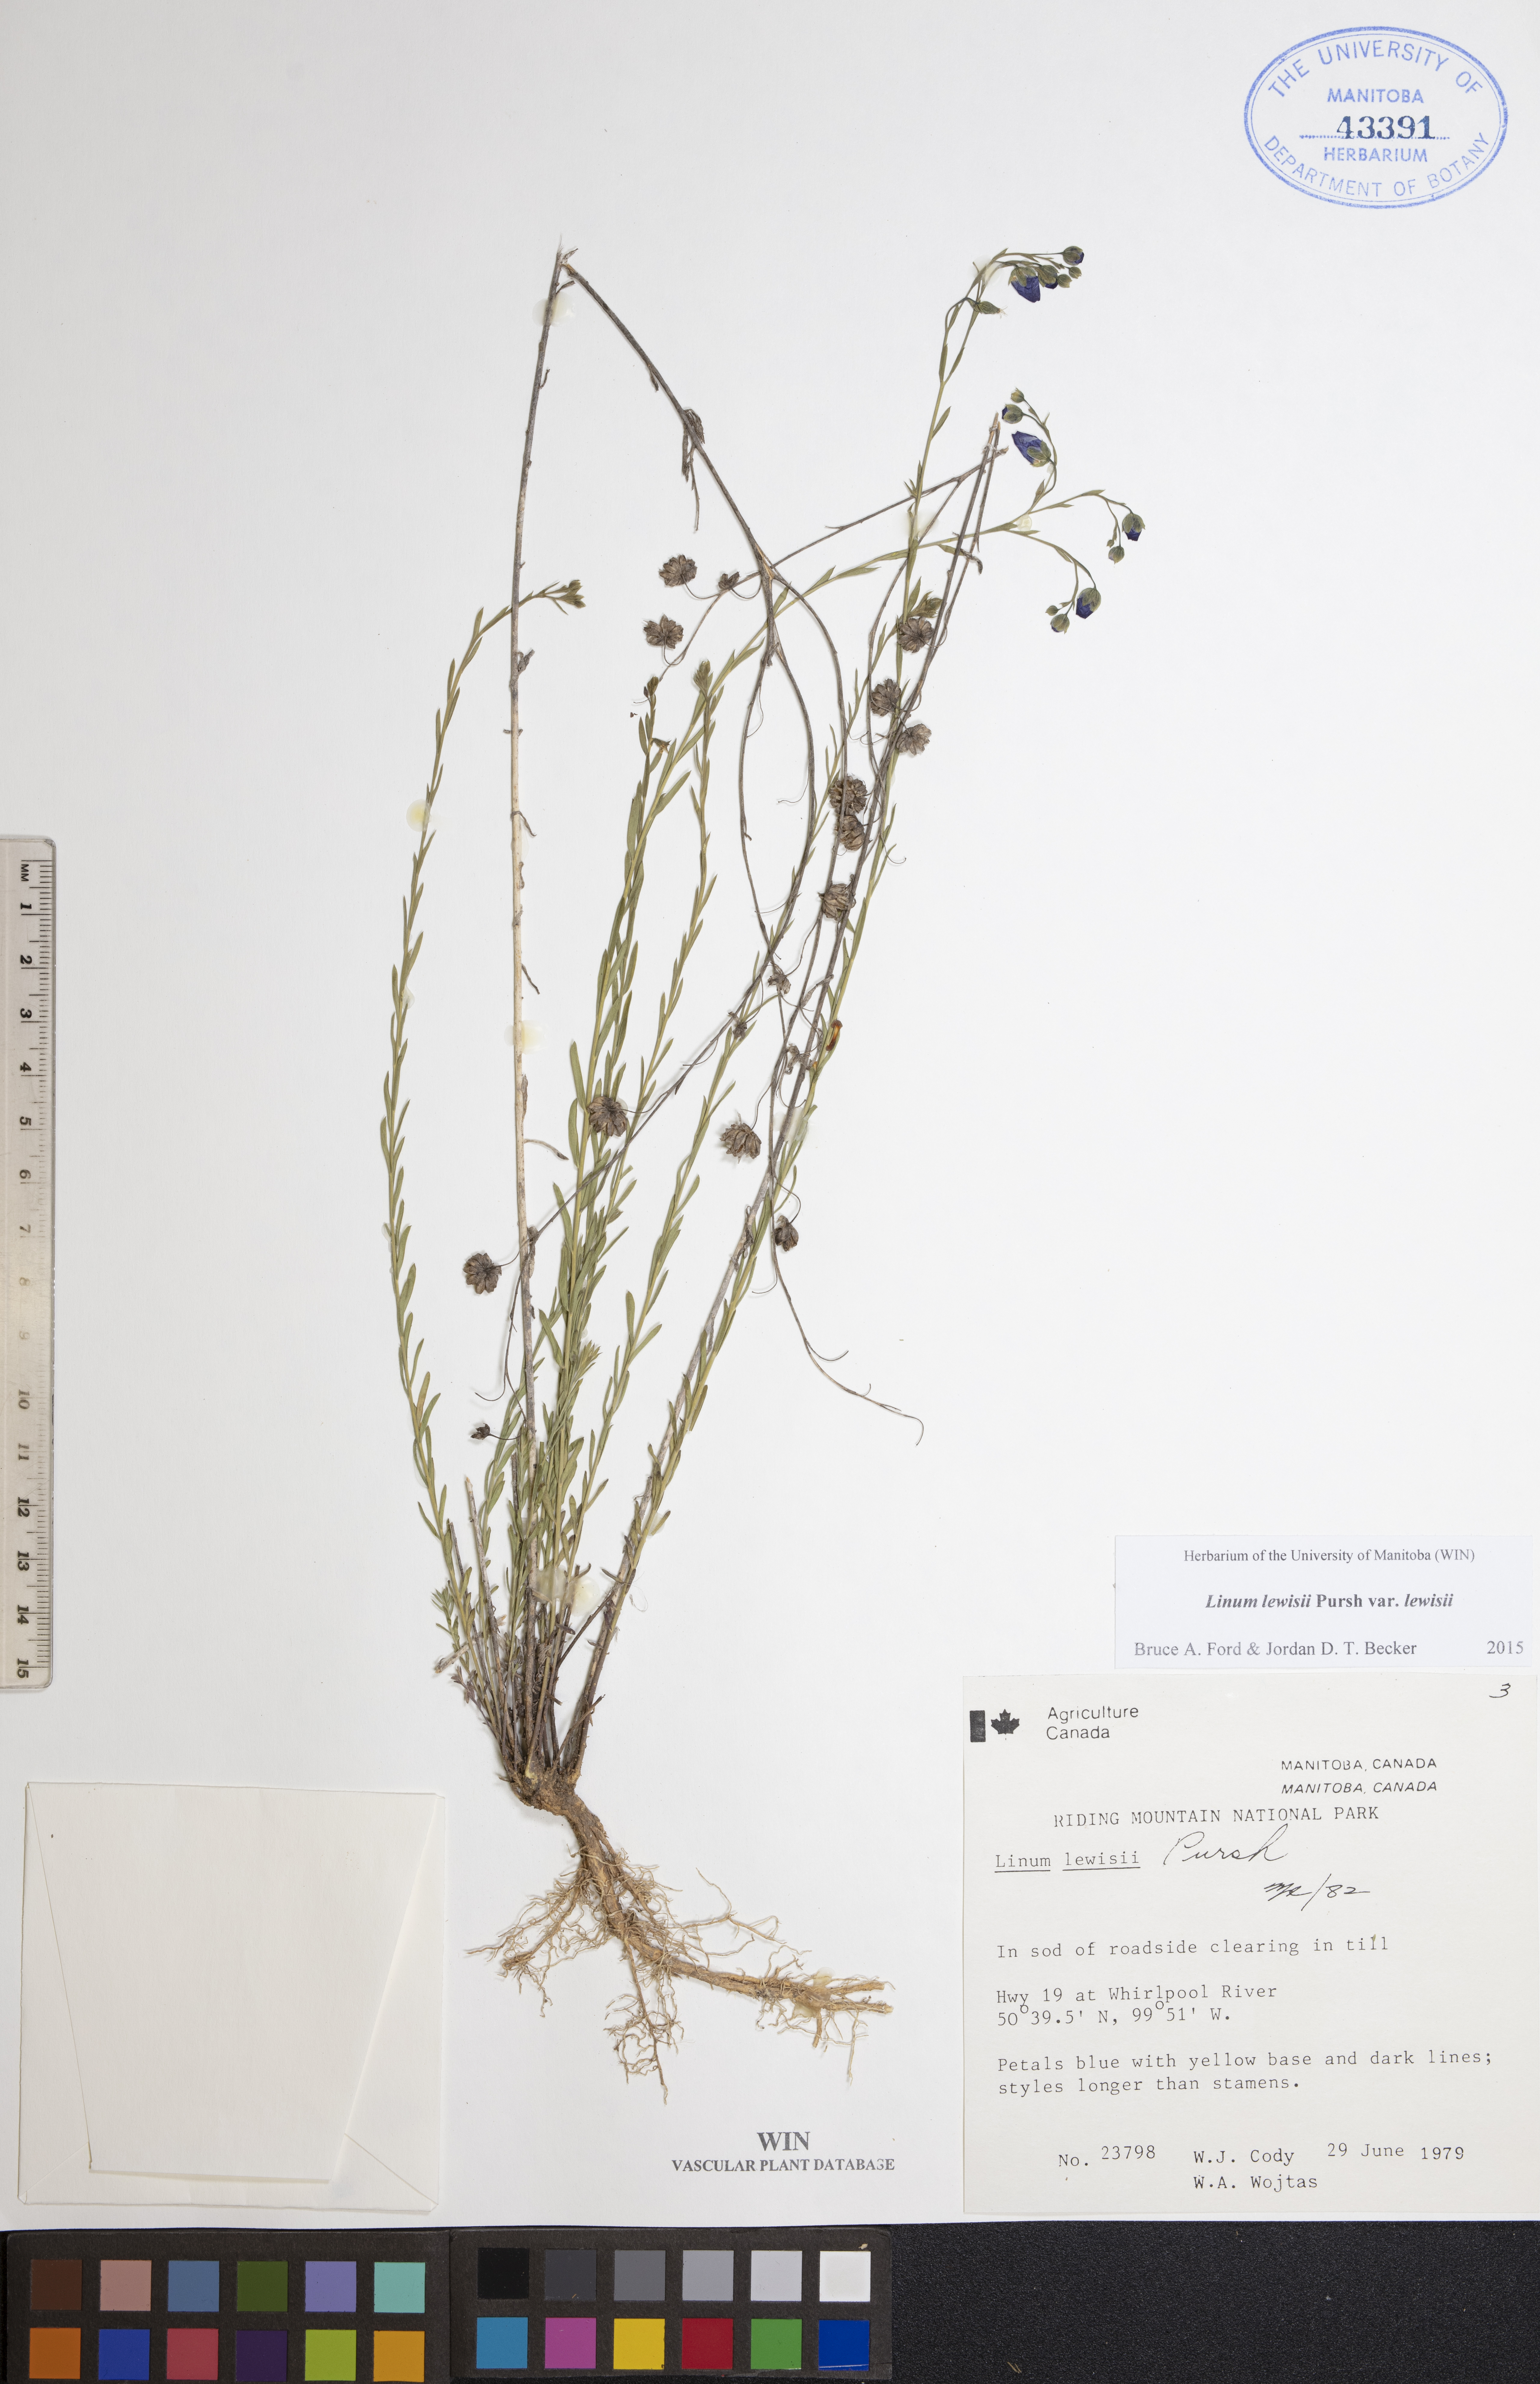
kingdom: Plantae
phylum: Tracheophyta
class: Magnoliopsida
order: Malpighiales
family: Linaceae
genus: Linum
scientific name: Linum lewisii
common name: Prairie flax
